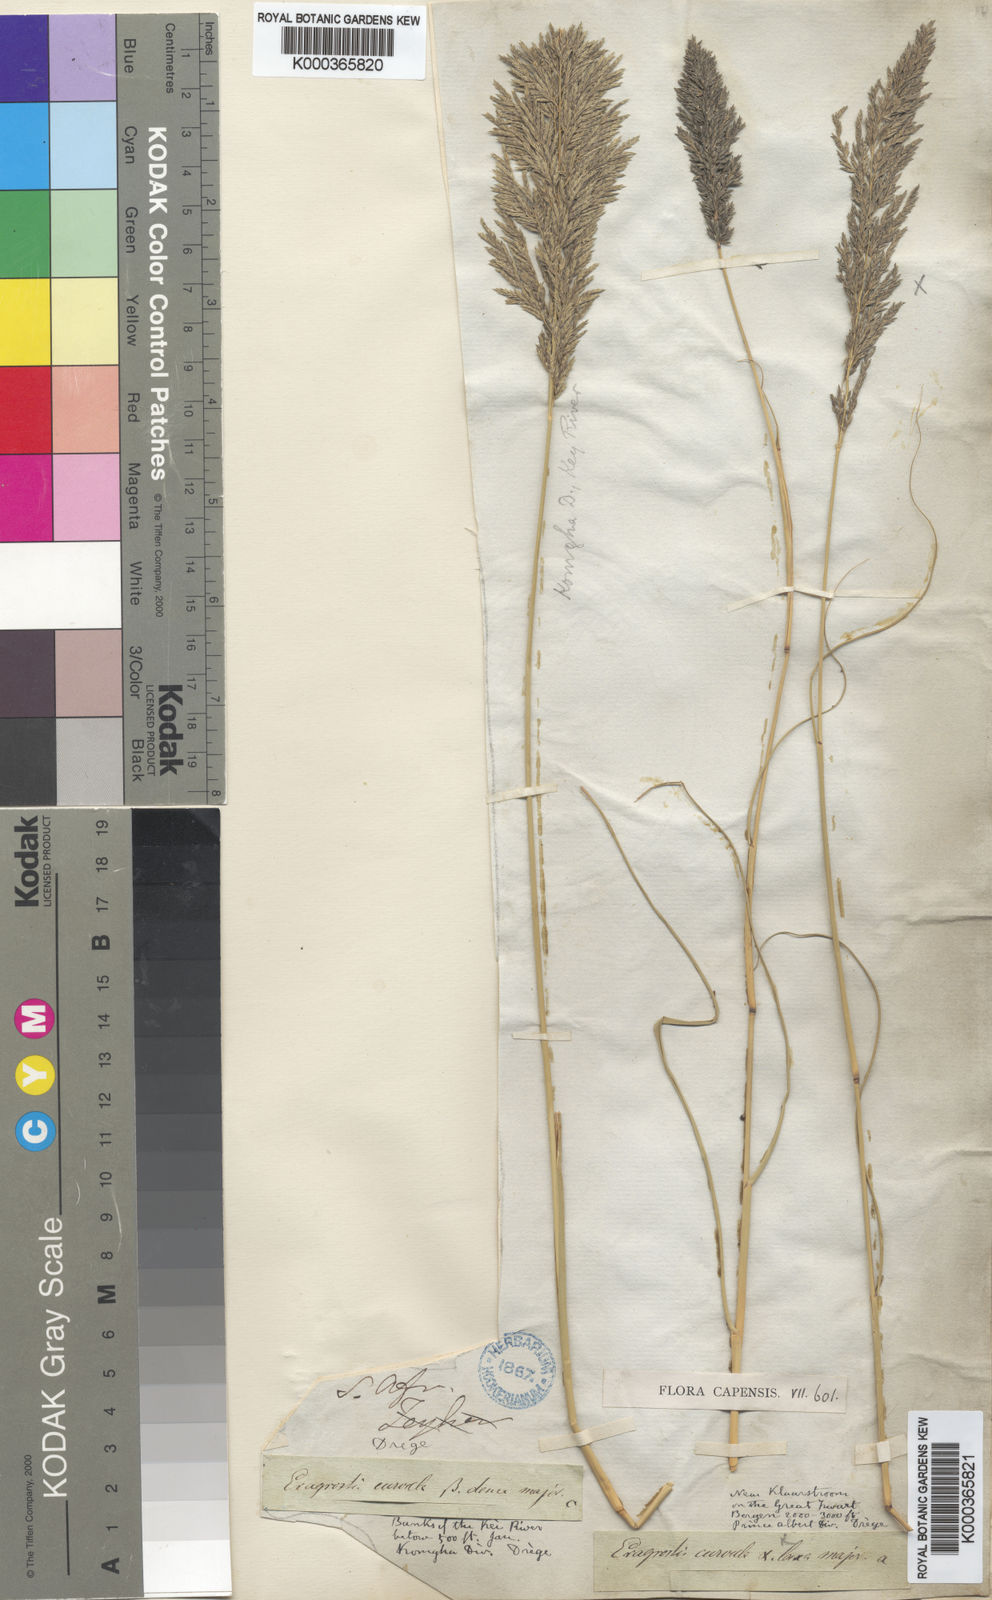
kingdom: Plantae
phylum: Tracheophyta
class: Liliopsida
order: Poales
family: Poaceae
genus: Eragrostis
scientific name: Eragrostis curvula
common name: African love-grass
